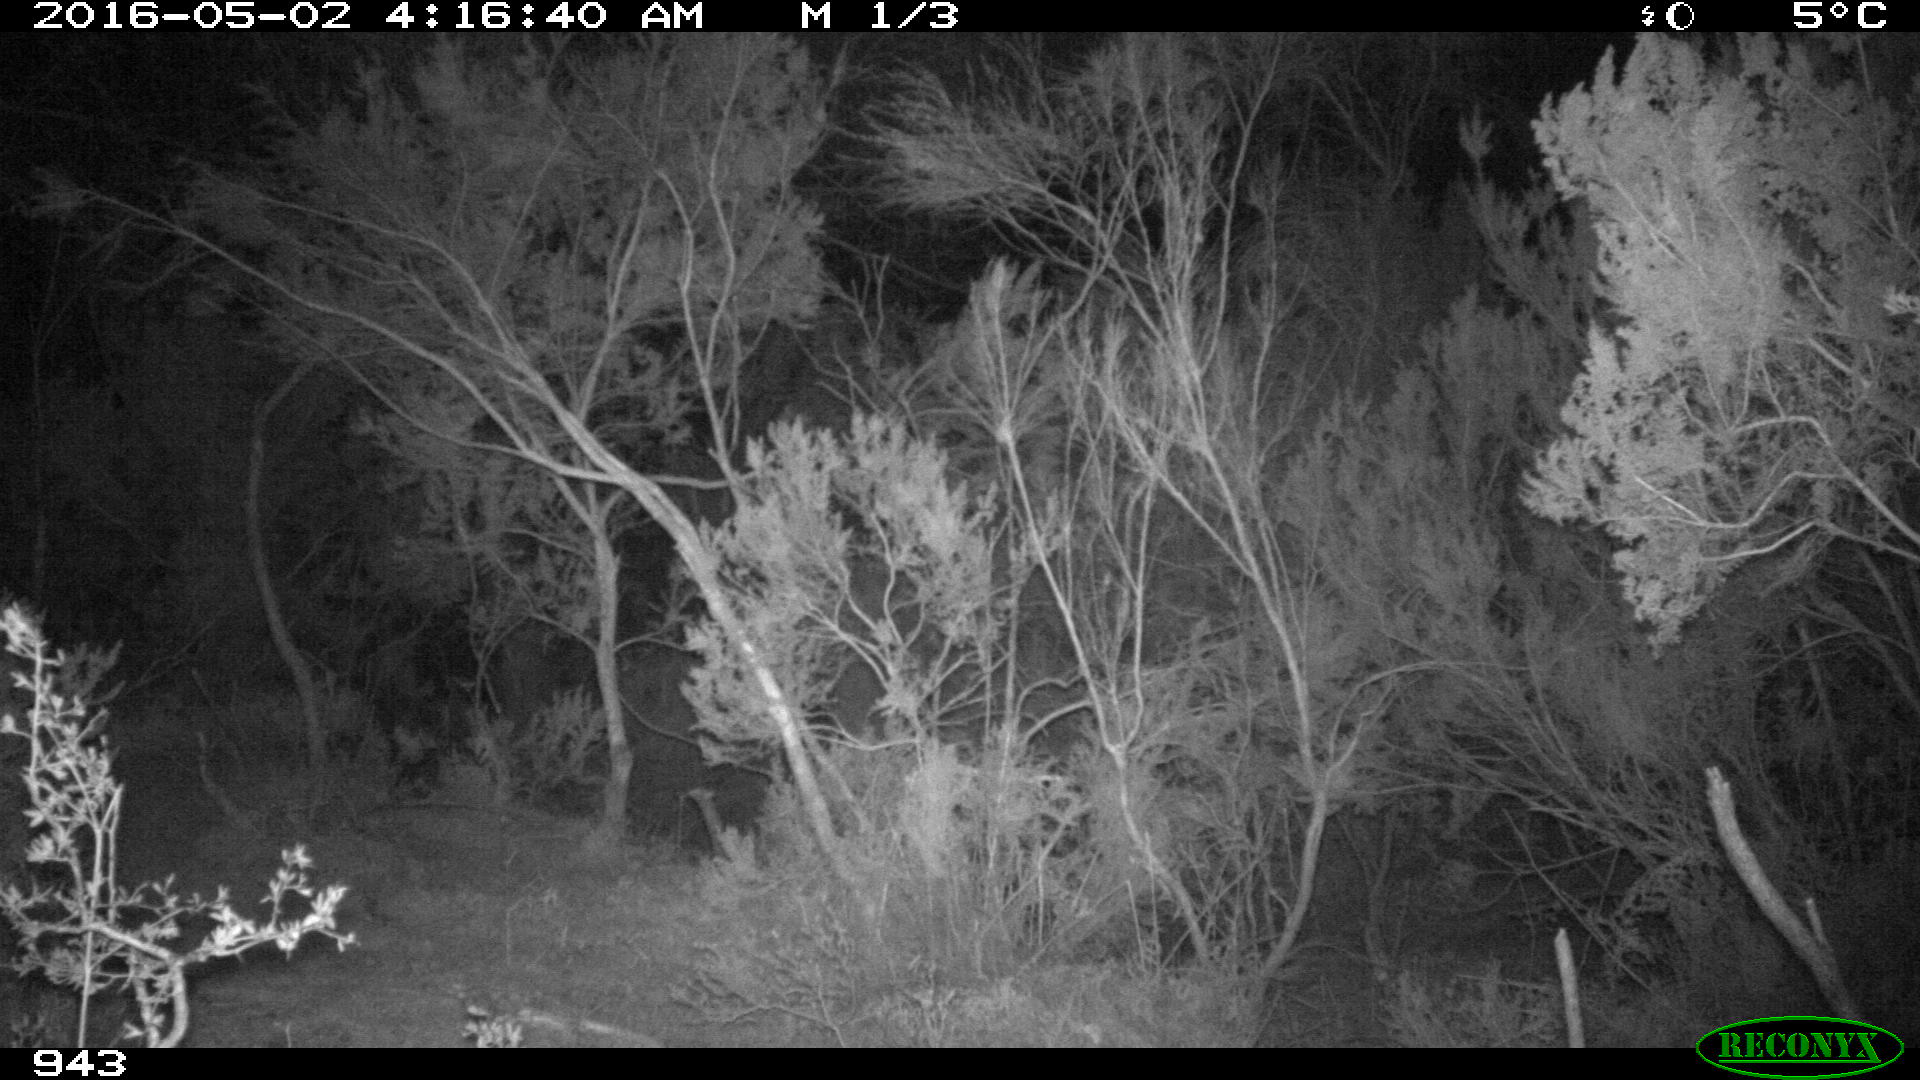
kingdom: Animalia
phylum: Chordata
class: Mammalia
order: Perissodactyla
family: Equidae
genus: Equus
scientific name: Equus caballus
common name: Horse
